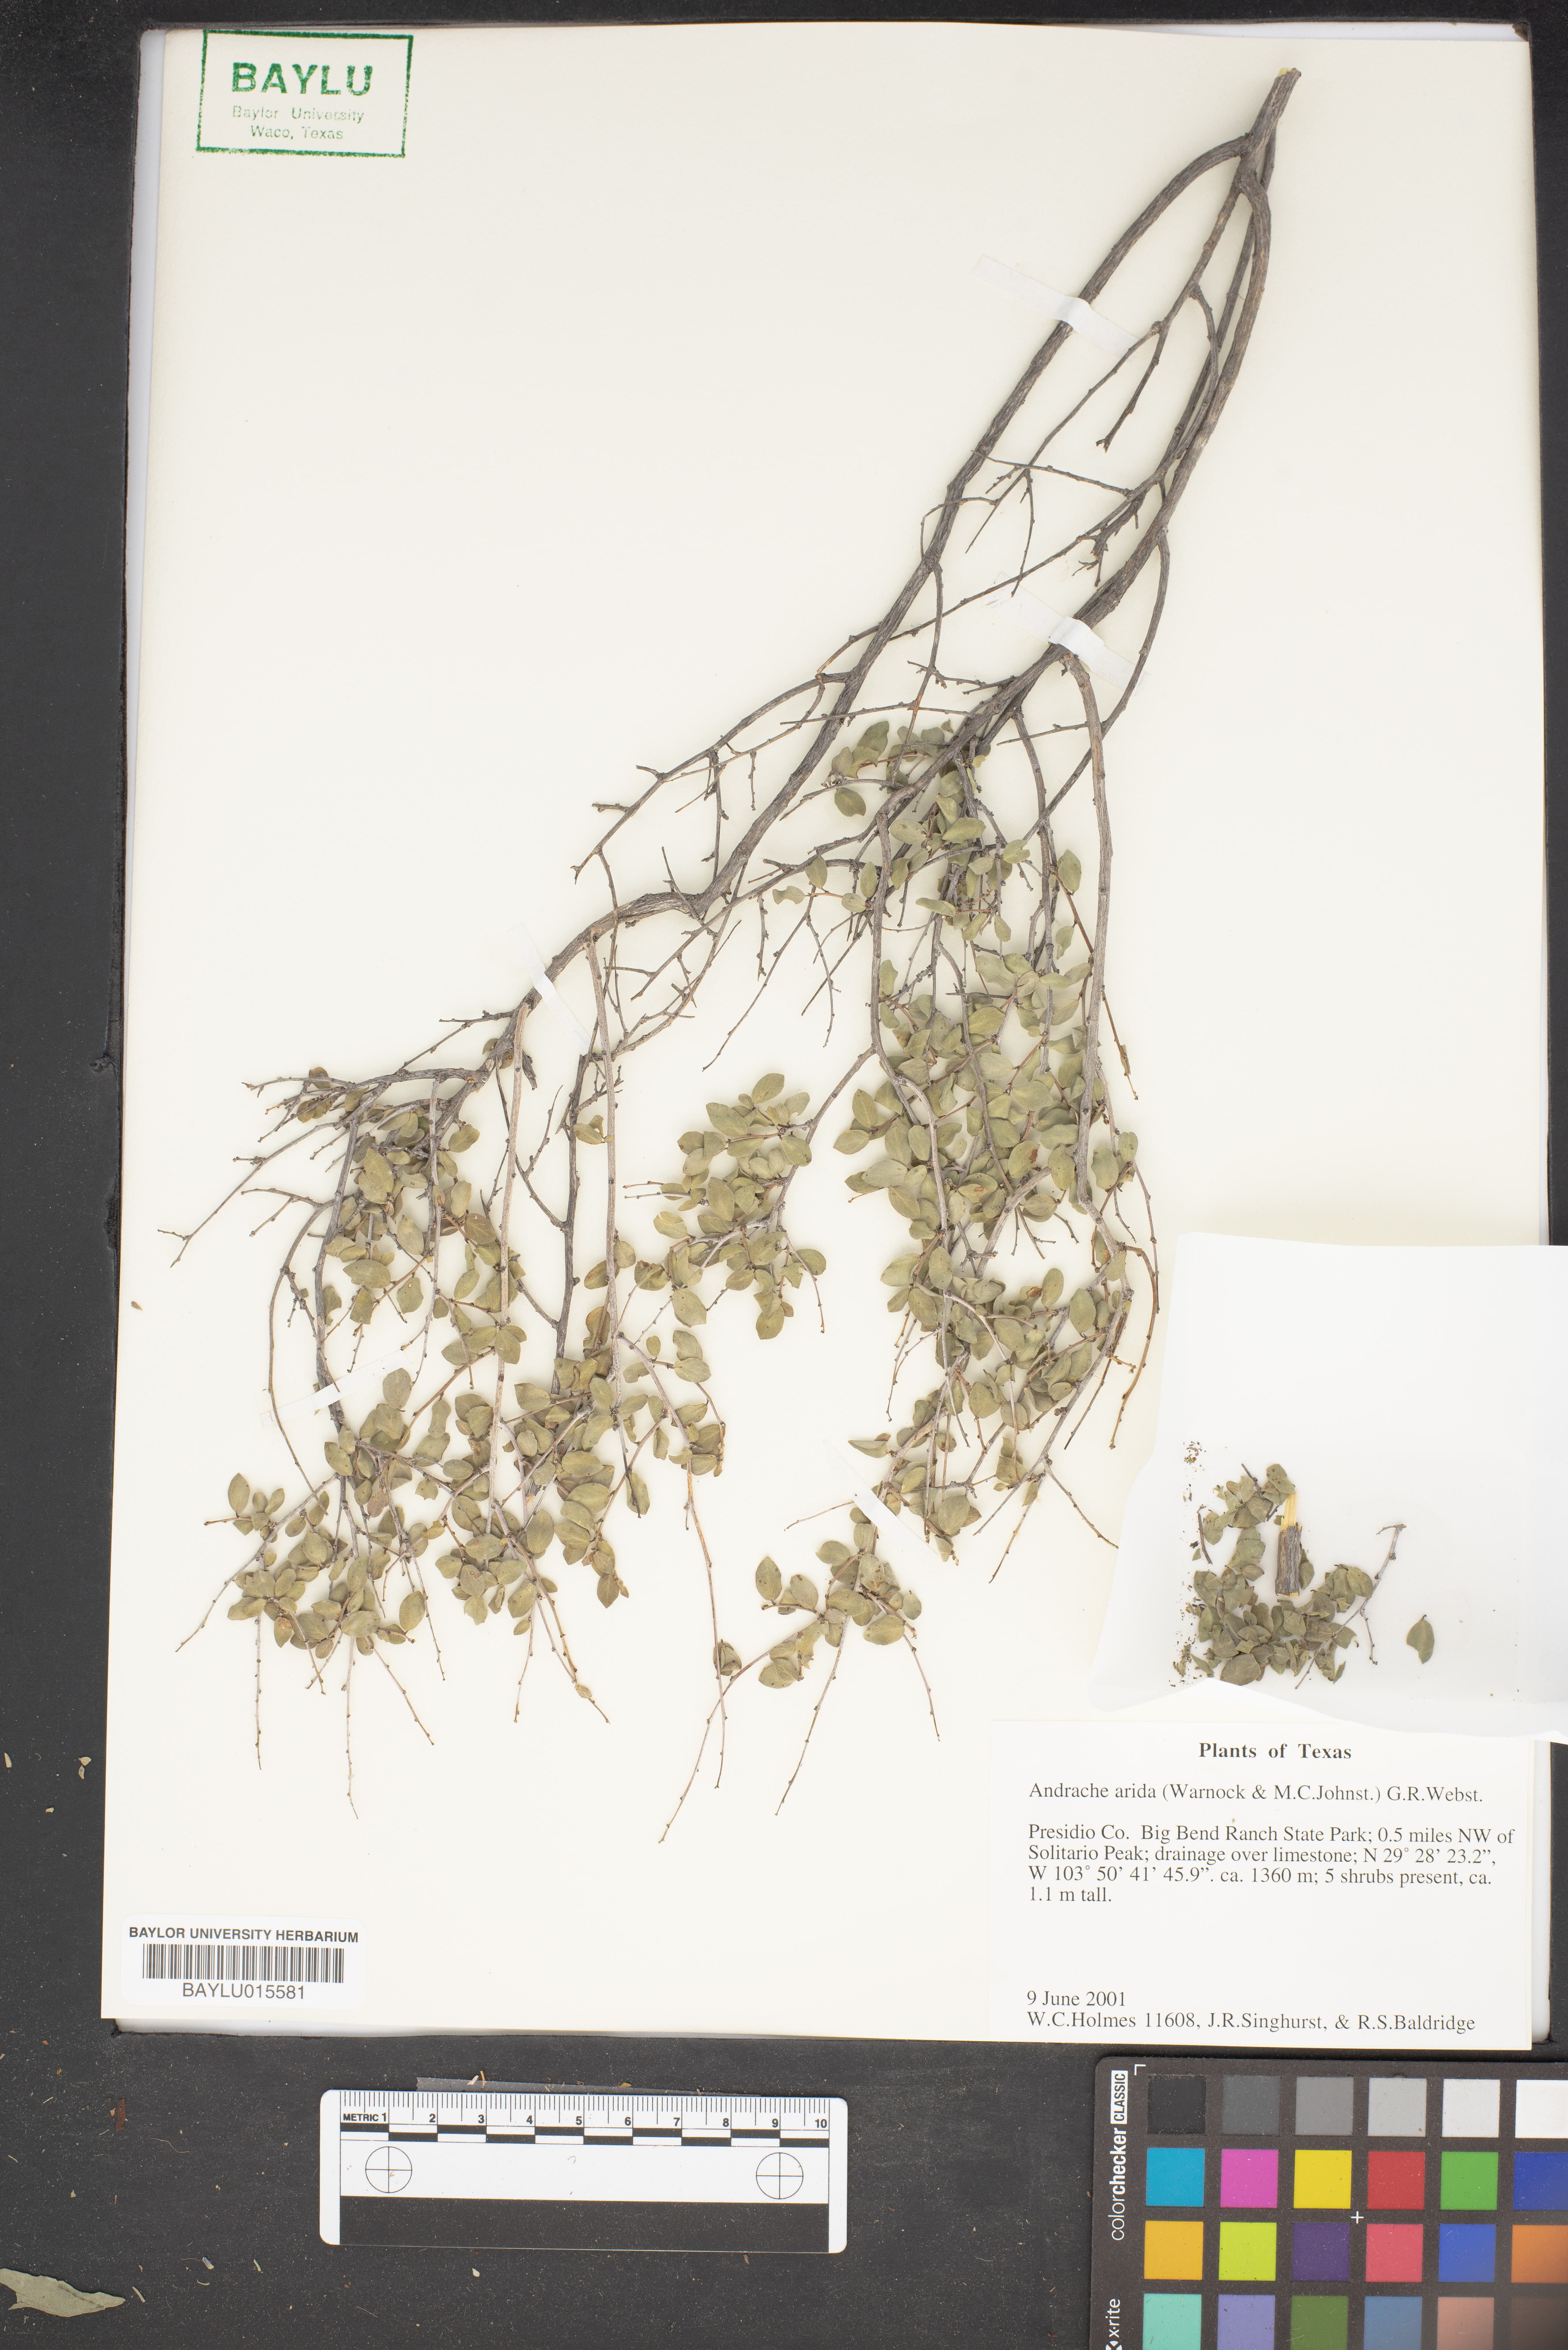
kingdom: Plantae
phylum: Tracheophyta
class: Magnoliopsida
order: Malpighiales
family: Phyllanthaceae
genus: Phyllanthopsis
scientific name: Phyllanthopsis arida
